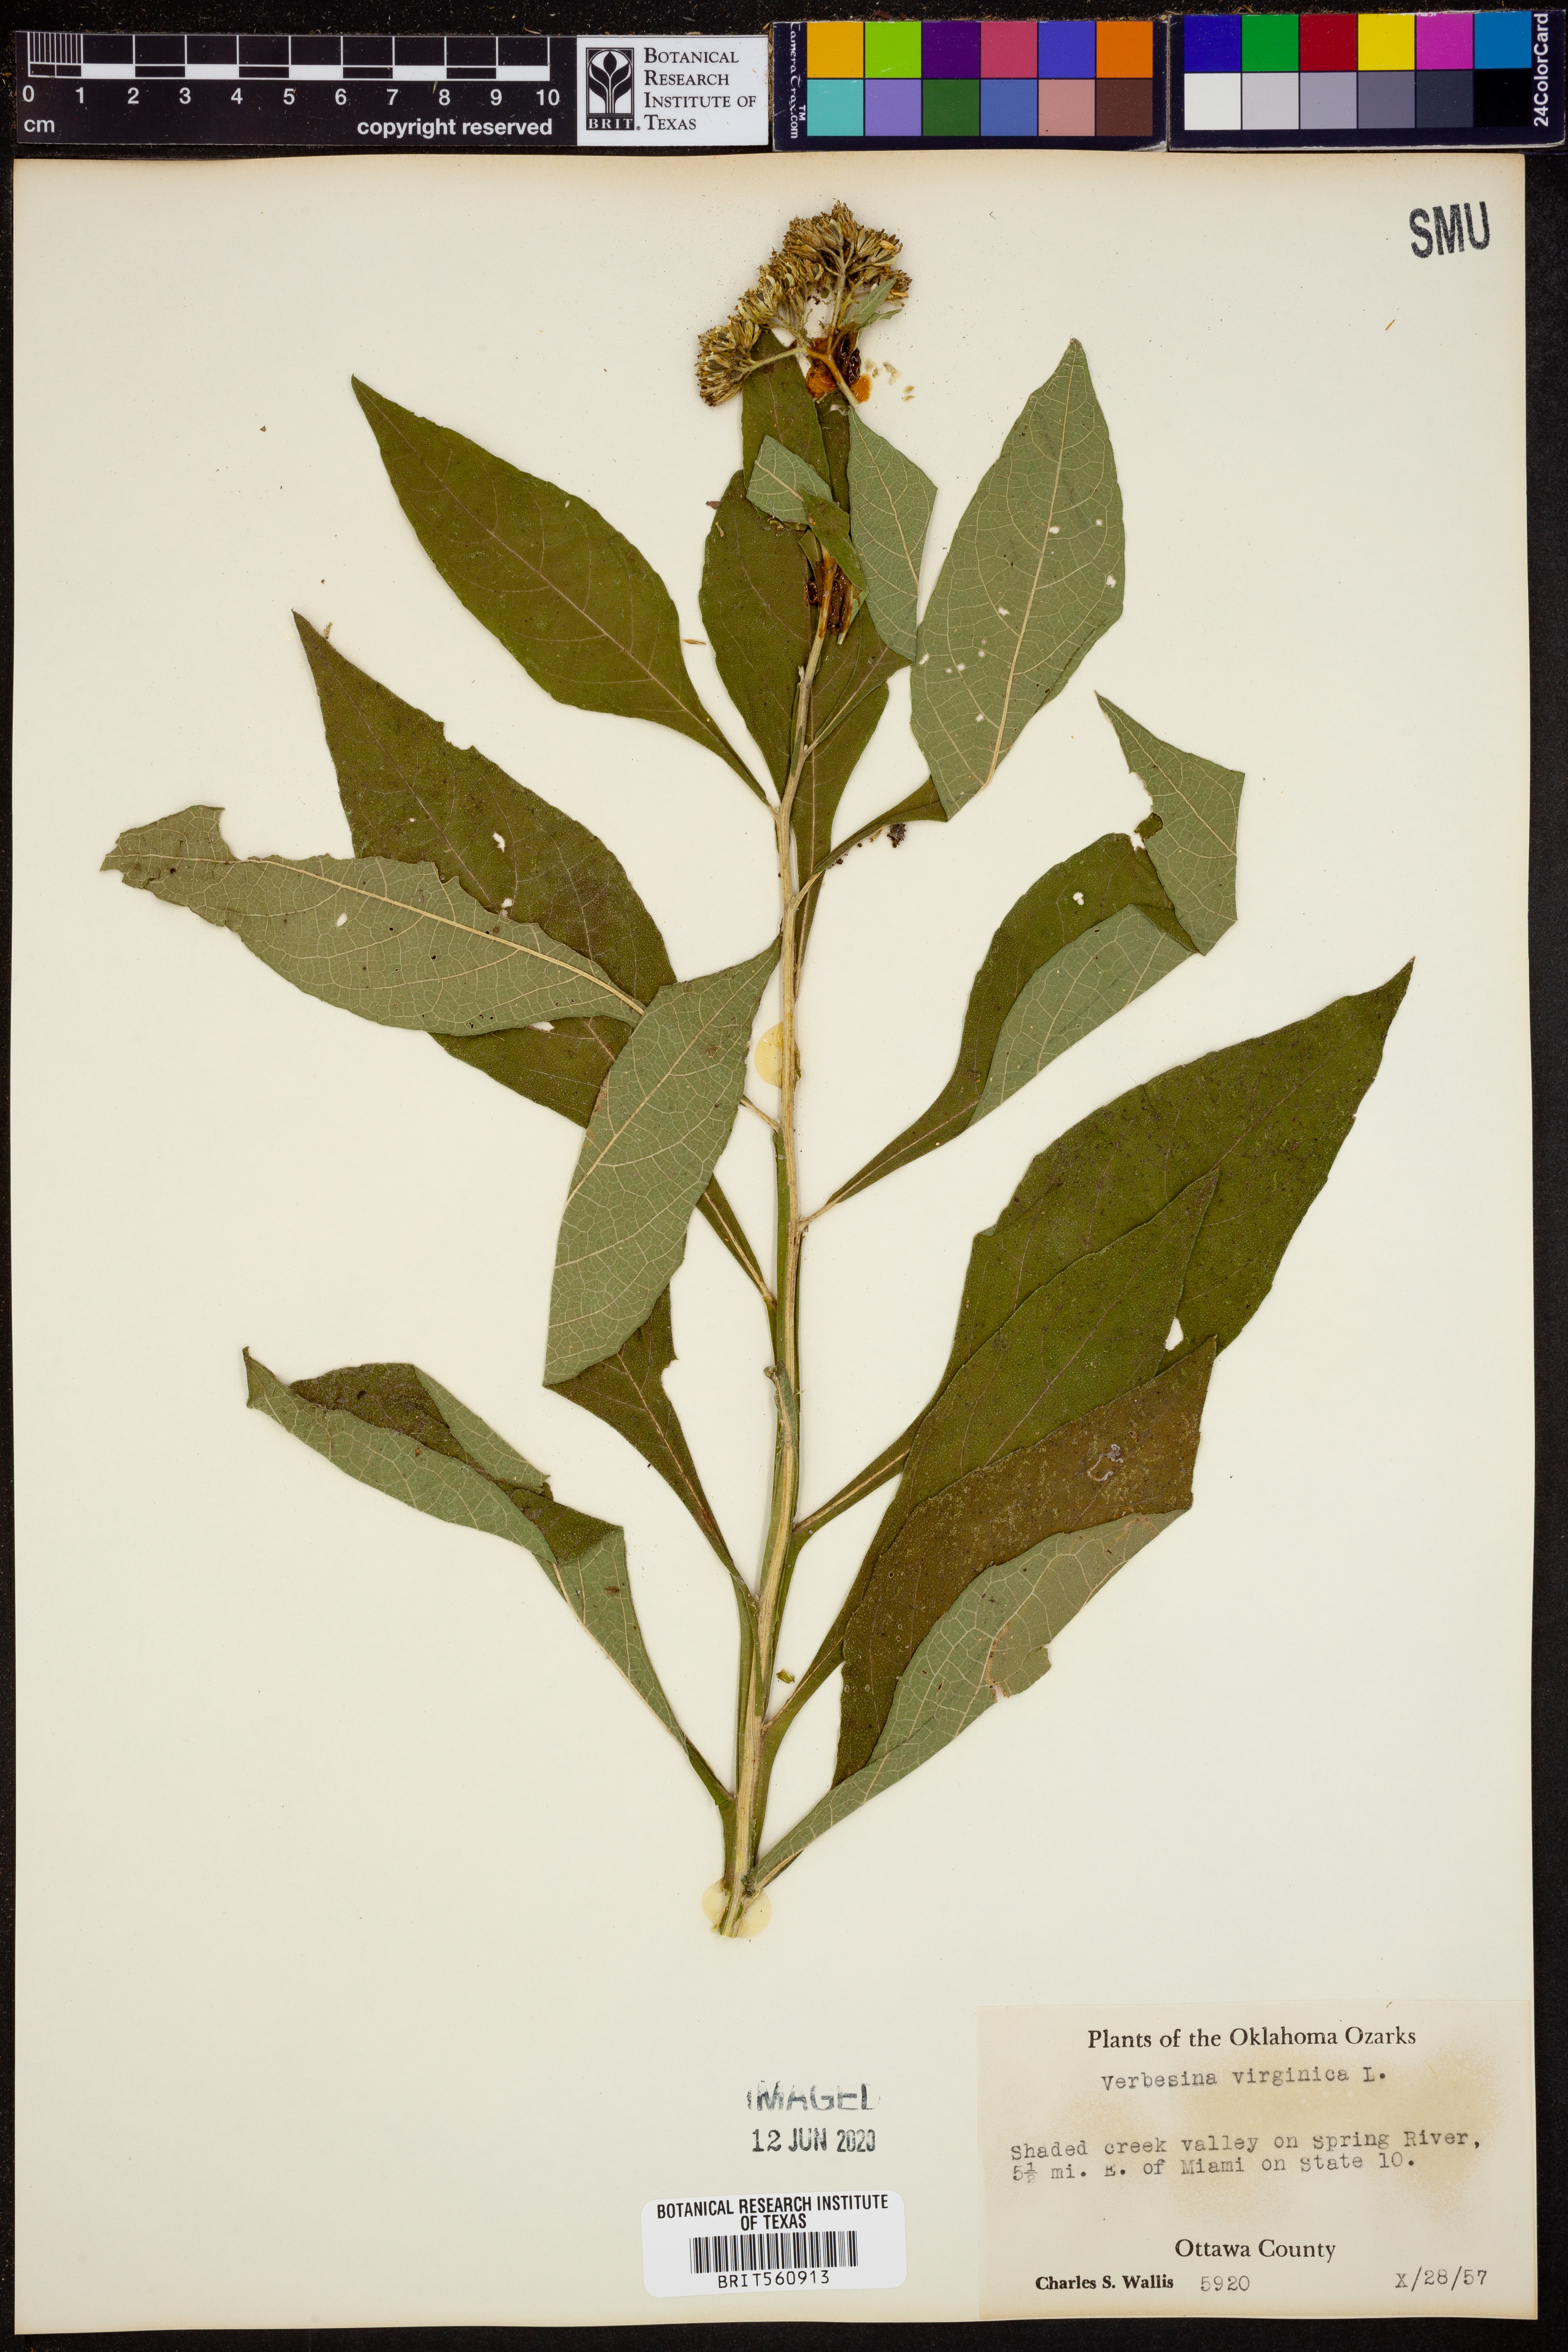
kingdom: Plantae
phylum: Tracheophyta
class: Magnoliopsida
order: Asterales
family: Asteraceae
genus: Verbesina
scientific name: Verbesina virginica
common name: Frostweed
